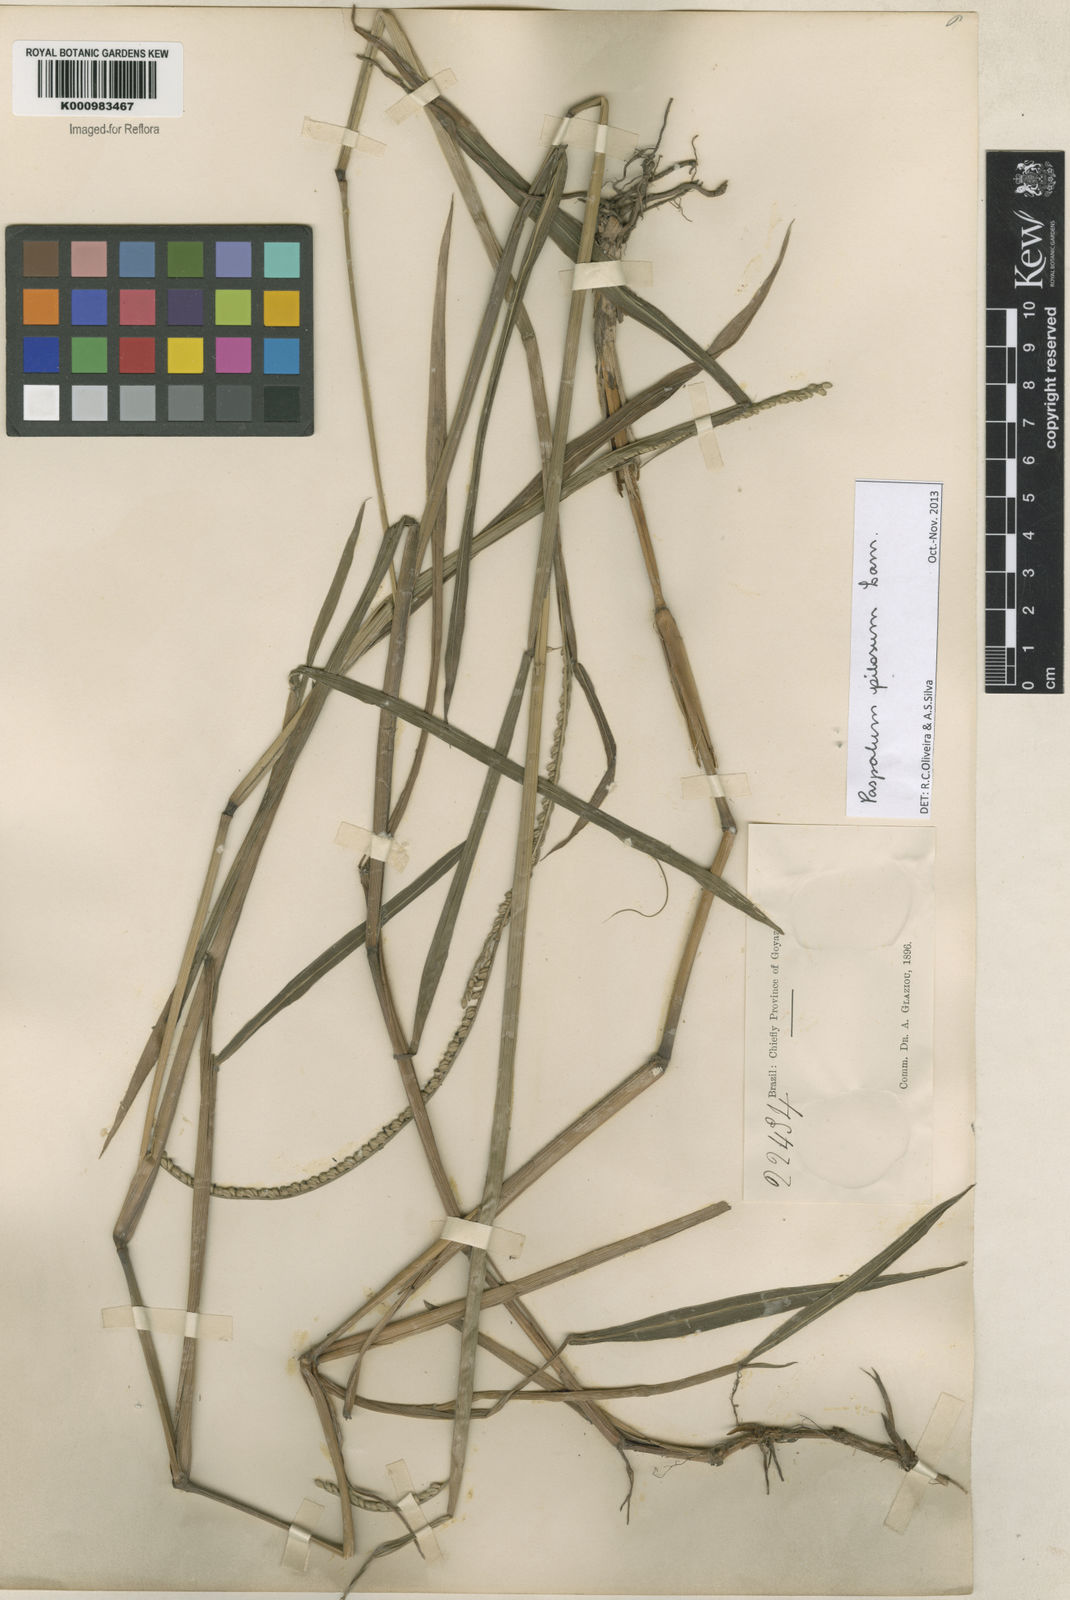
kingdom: Plantae
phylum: Tracheophyta
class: Liliopsida
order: Poales
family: Poaceae
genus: Paspalum
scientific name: Paspalum pilosum
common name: Crowngrass
